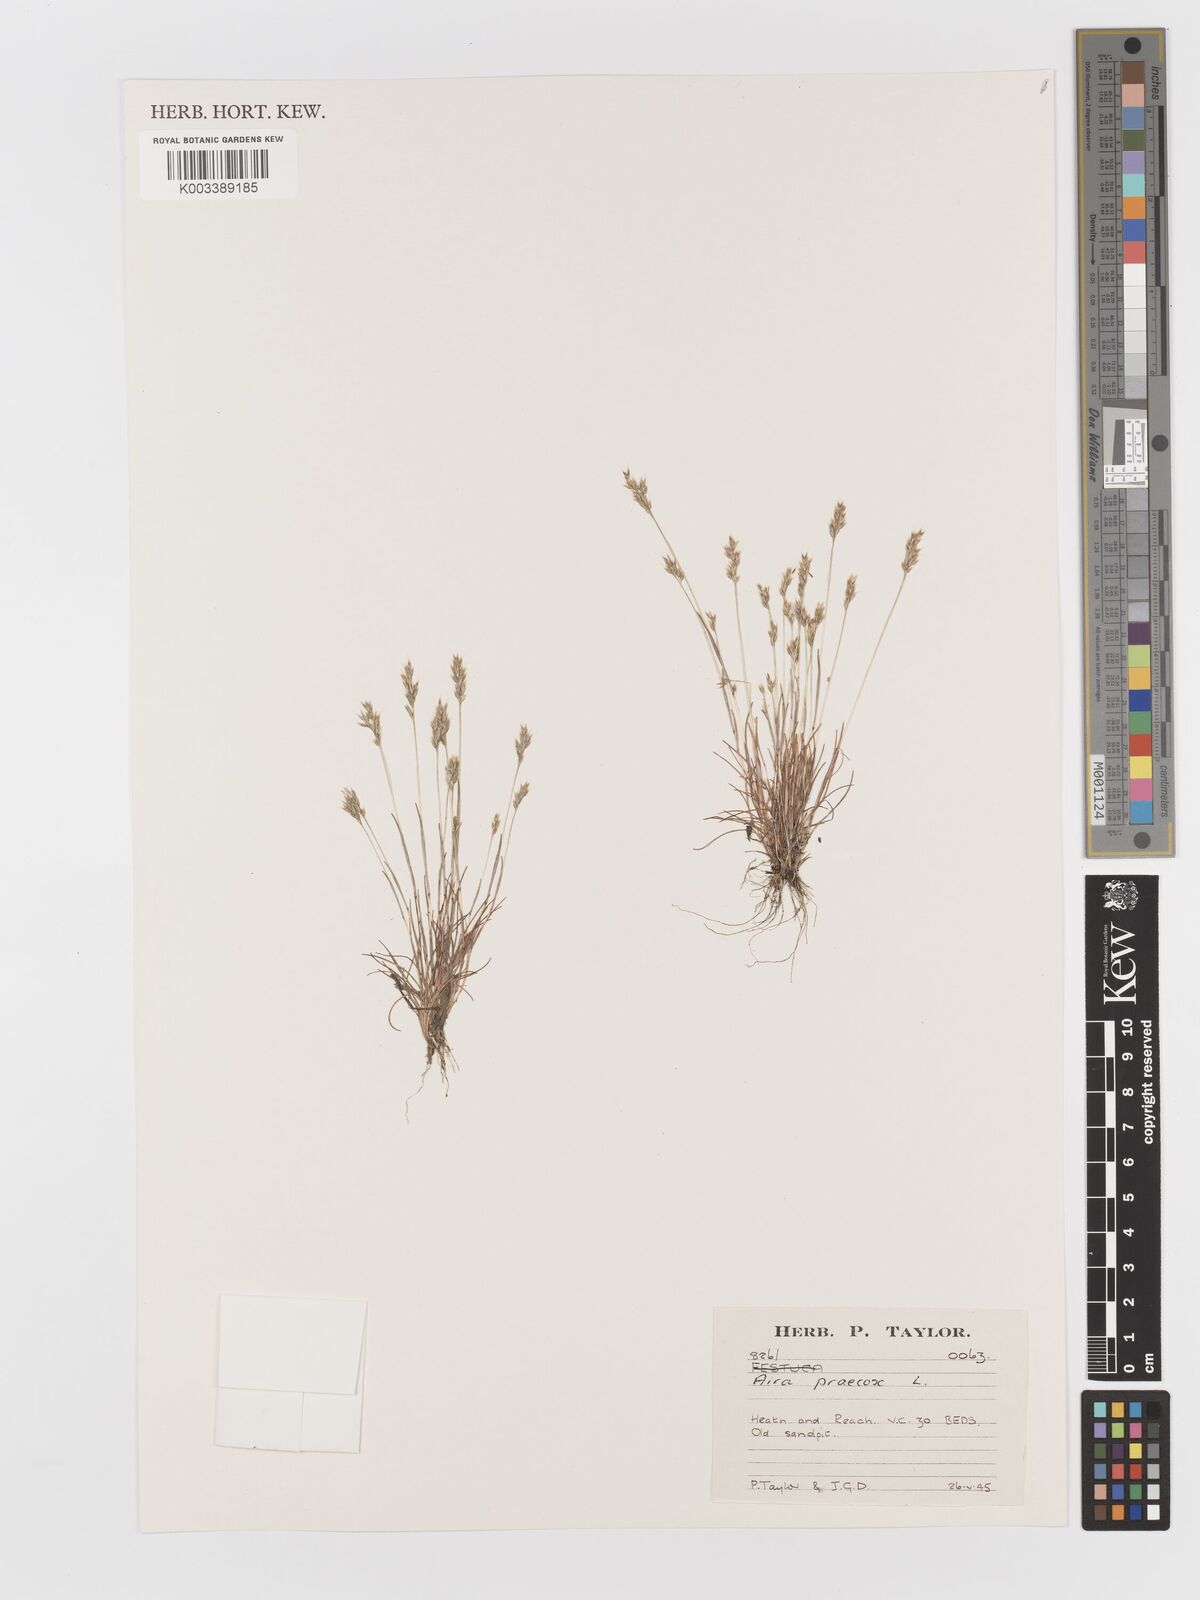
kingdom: Plantae
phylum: Tracheophyta
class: Liliopsida
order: Poales
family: Poaceae
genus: Aira
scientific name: Aira praecox
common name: Early hair-grass
